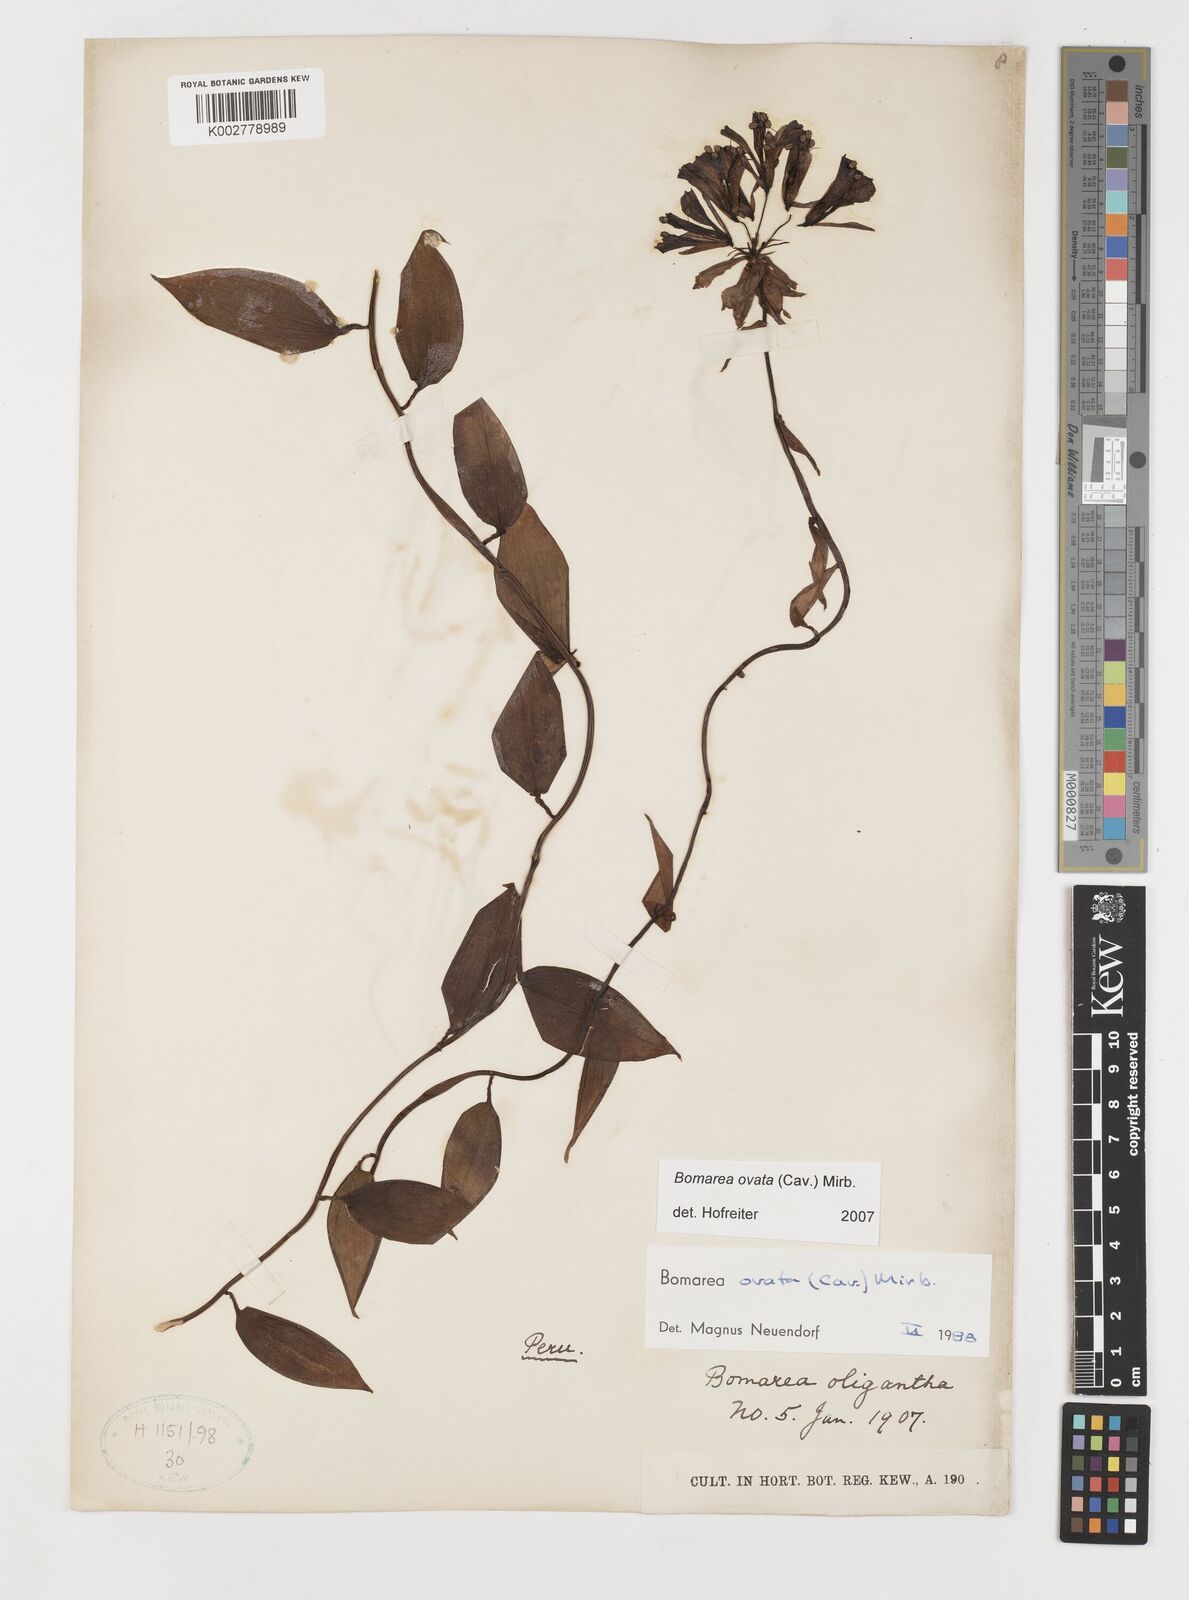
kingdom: Plantae
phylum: Tracheophyta
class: Liliopsida
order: Liliales
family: Alstroemeriaceae
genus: Bomarea
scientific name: Bomarea ovata
